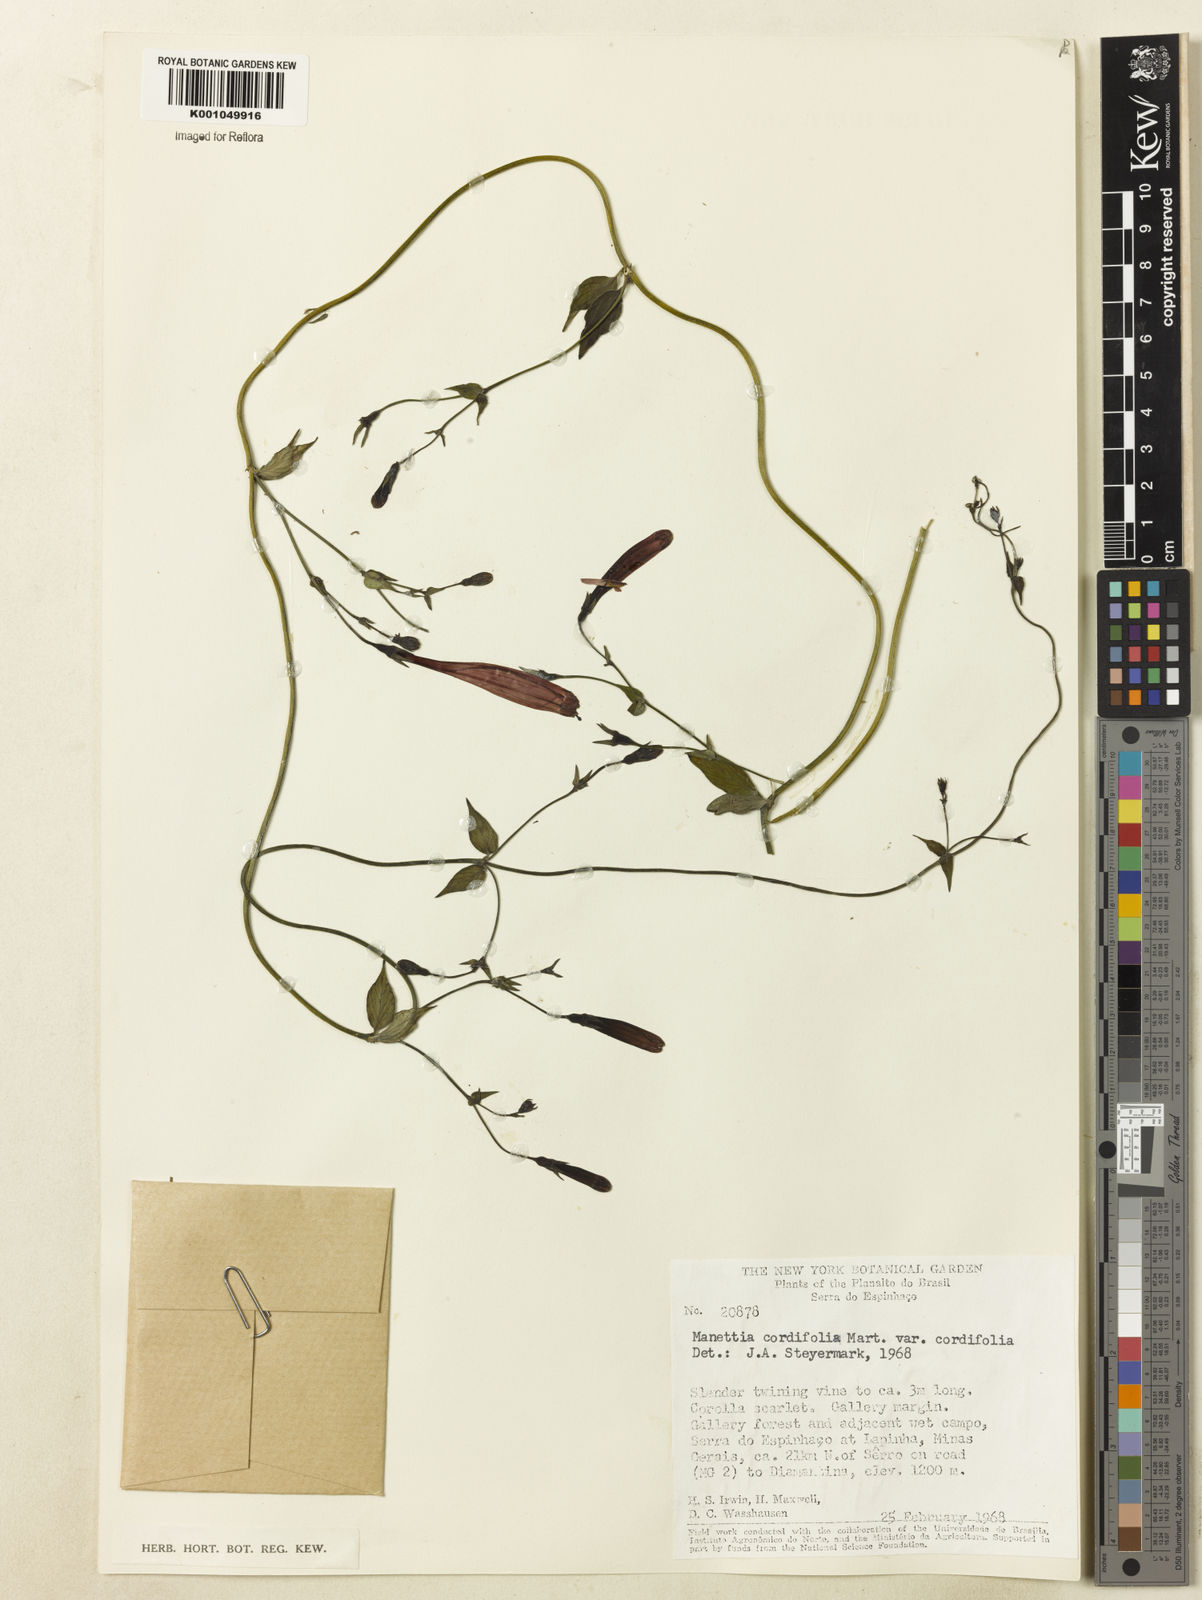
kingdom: Plantae
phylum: Tracheophyta
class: Magnoliopsida
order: Gentianales
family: Rubiaceae
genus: Manettia
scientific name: Manettia cordifolia
